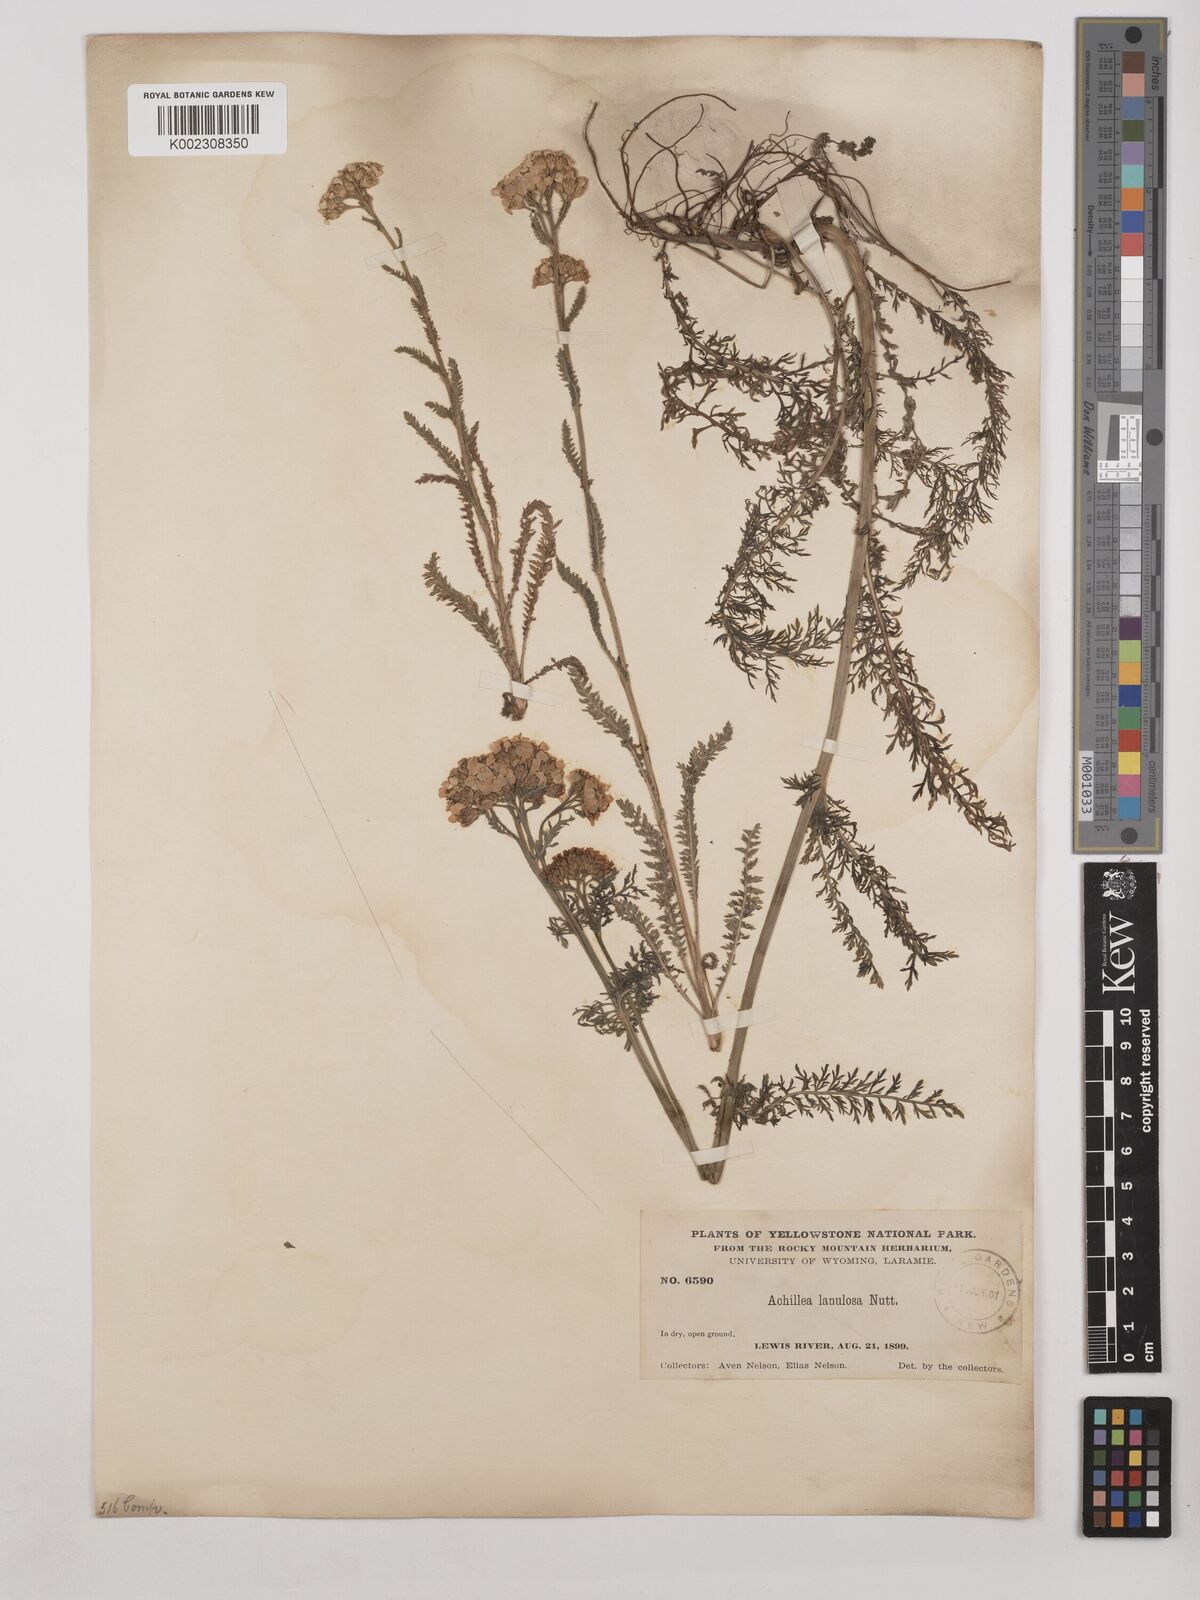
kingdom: Plantae
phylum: Tracheophyta
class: Magnoliopsida
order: Asterales
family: Asteraceae
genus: Achillea
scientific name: Achillea millefolium
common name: Yarrow
